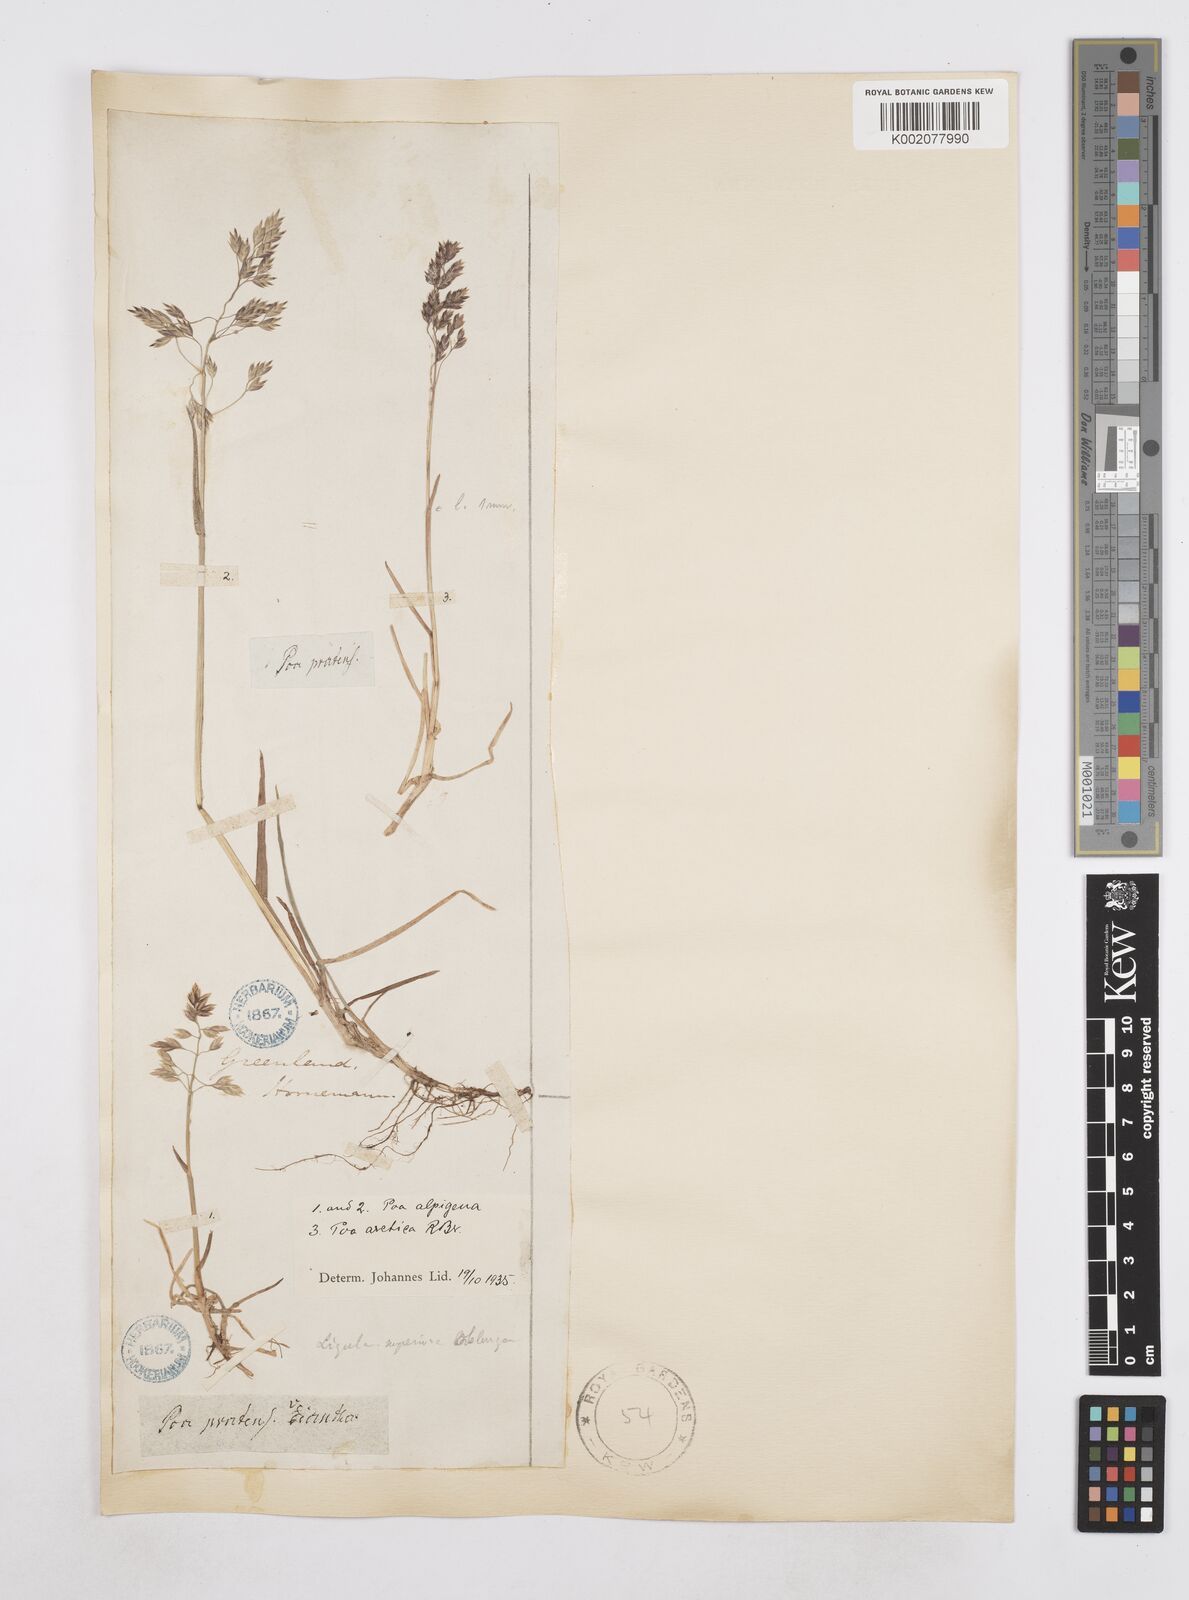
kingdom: Plantae
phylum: Tracheophyta
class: Liliopsida
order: Poales
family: Poaceae
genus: Poa
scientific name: Poa alpigena
